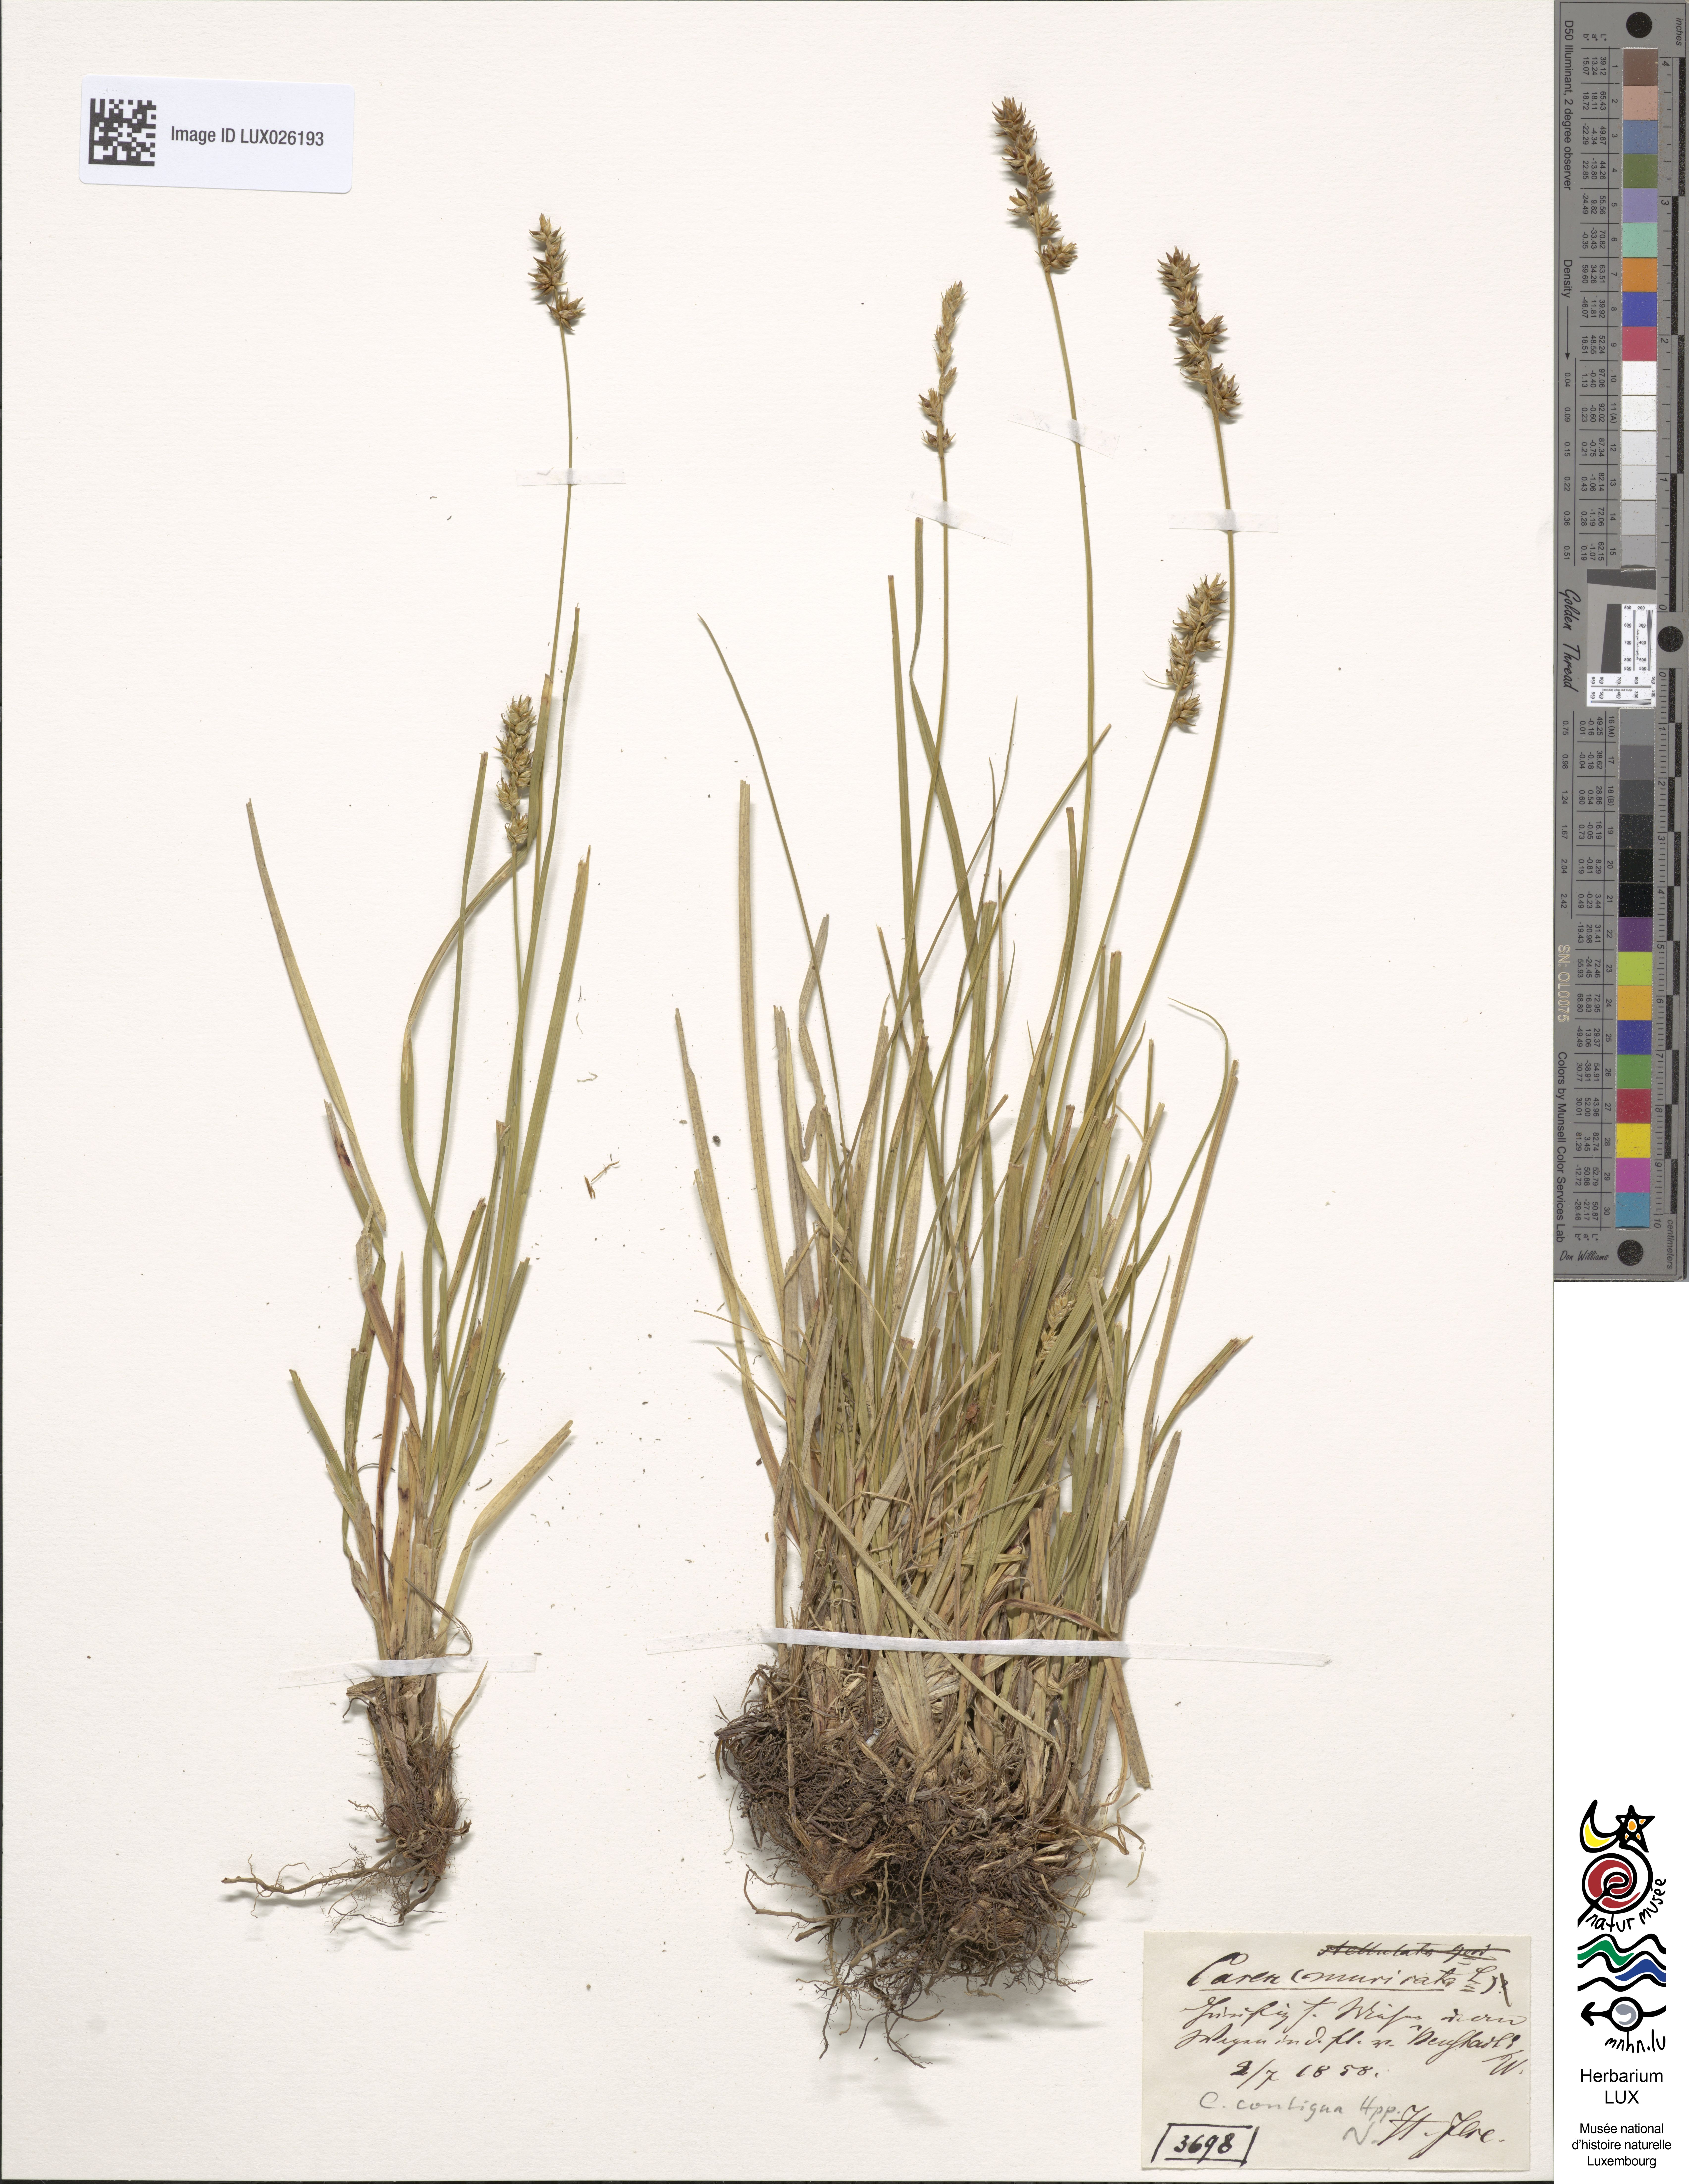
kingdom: Plantae
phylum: Tracheophyta
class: Liliopsida
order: Poales
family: Cyperaceae
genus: Carex
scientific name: Carex spicata
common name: Spiked sedge
